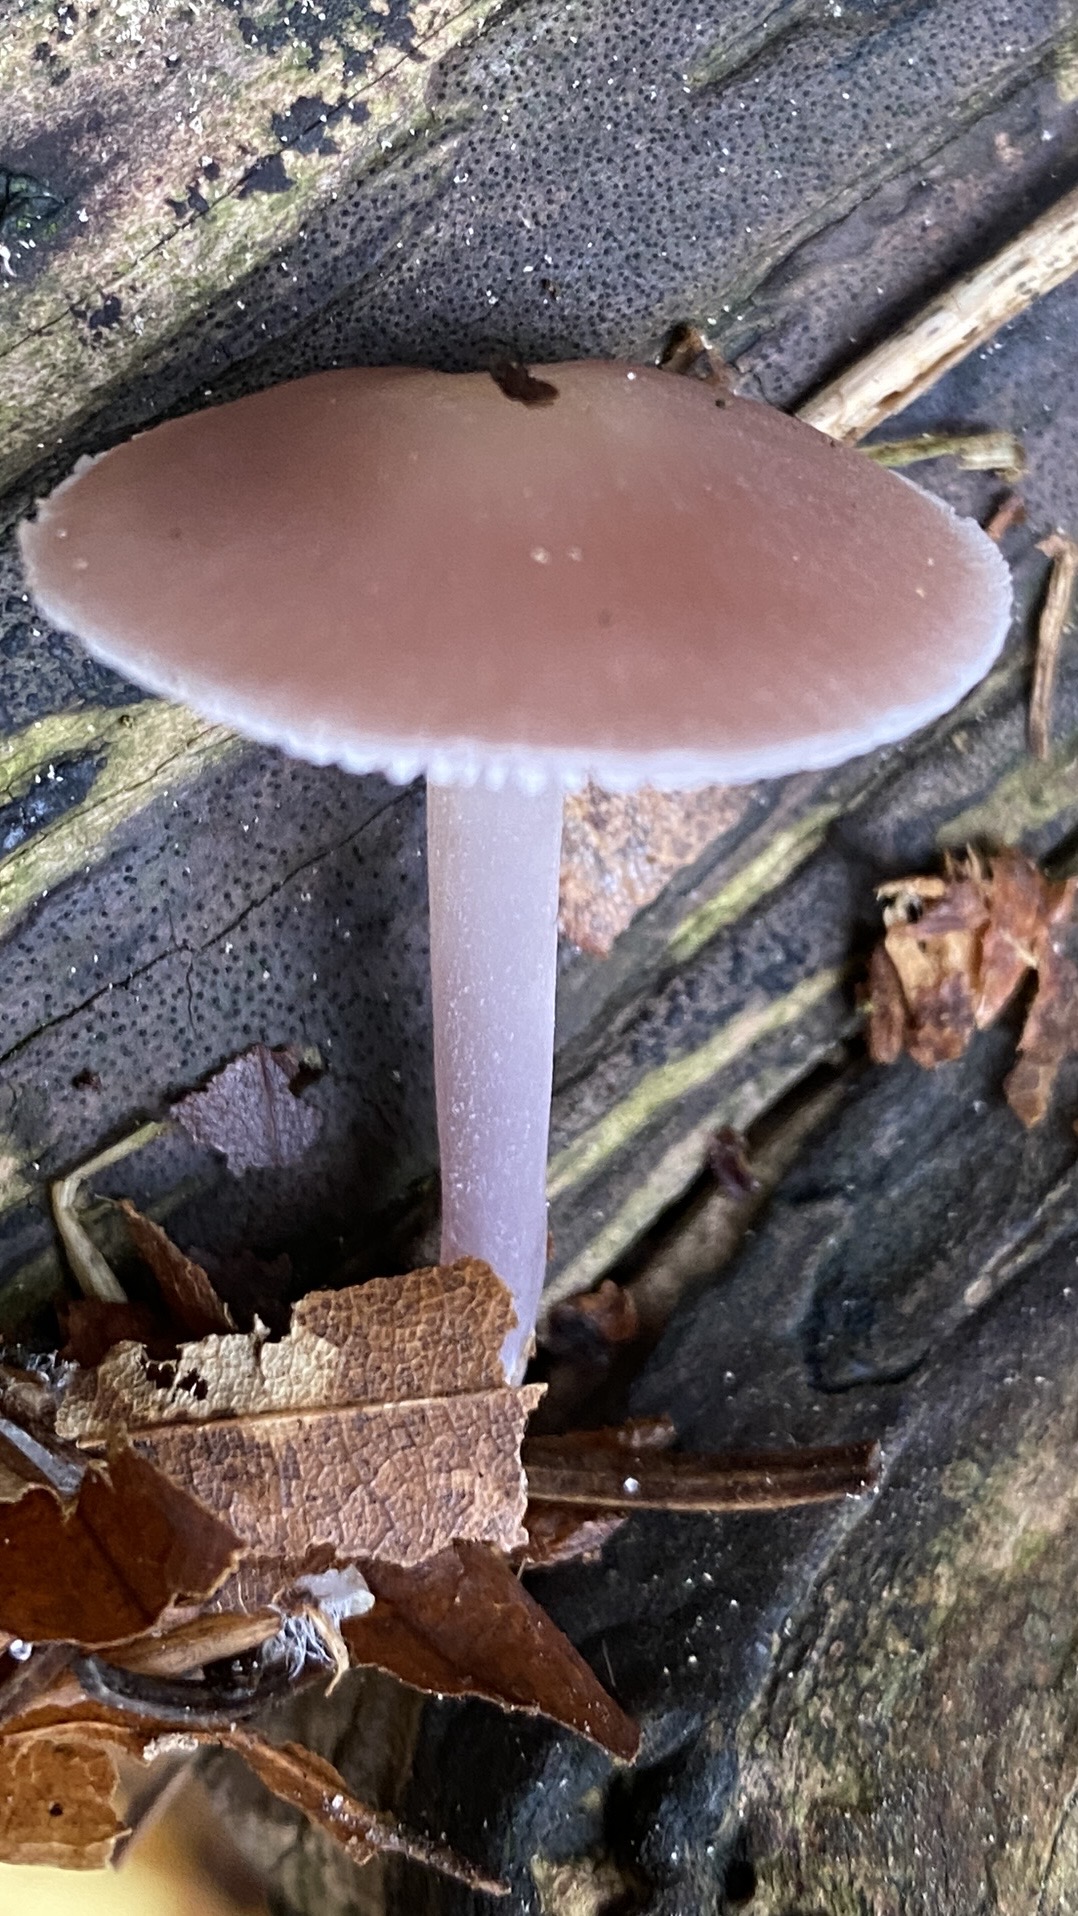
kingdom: Fungi
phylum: Basidiomycota
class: Agaricomycetes
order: Agaricales
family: Mycenaceae
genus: Mycena
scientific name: Mycena rosea
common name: rosa huesvamp
